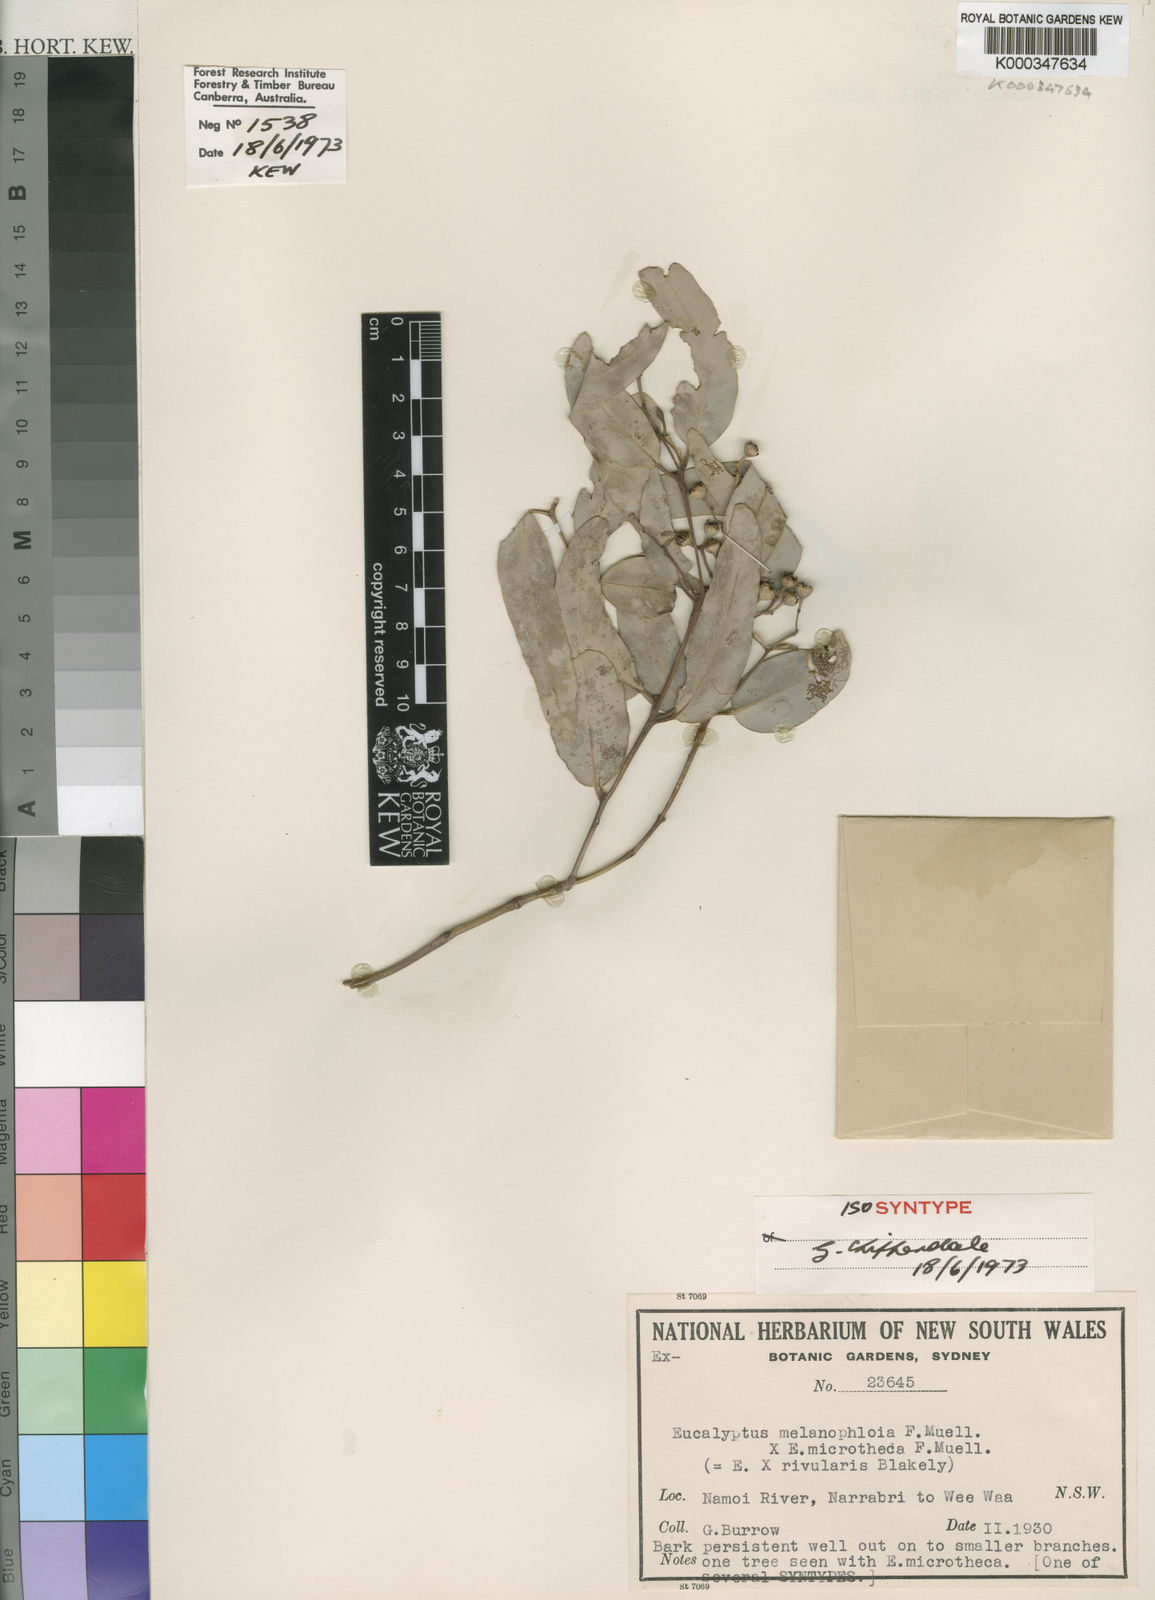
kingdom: Plantae
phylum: Tracheophyta
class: Magnoliopsida
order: Myrtales
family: Myrtaceae
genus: Eucalyptus
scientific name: Eucalyptus rivularis
